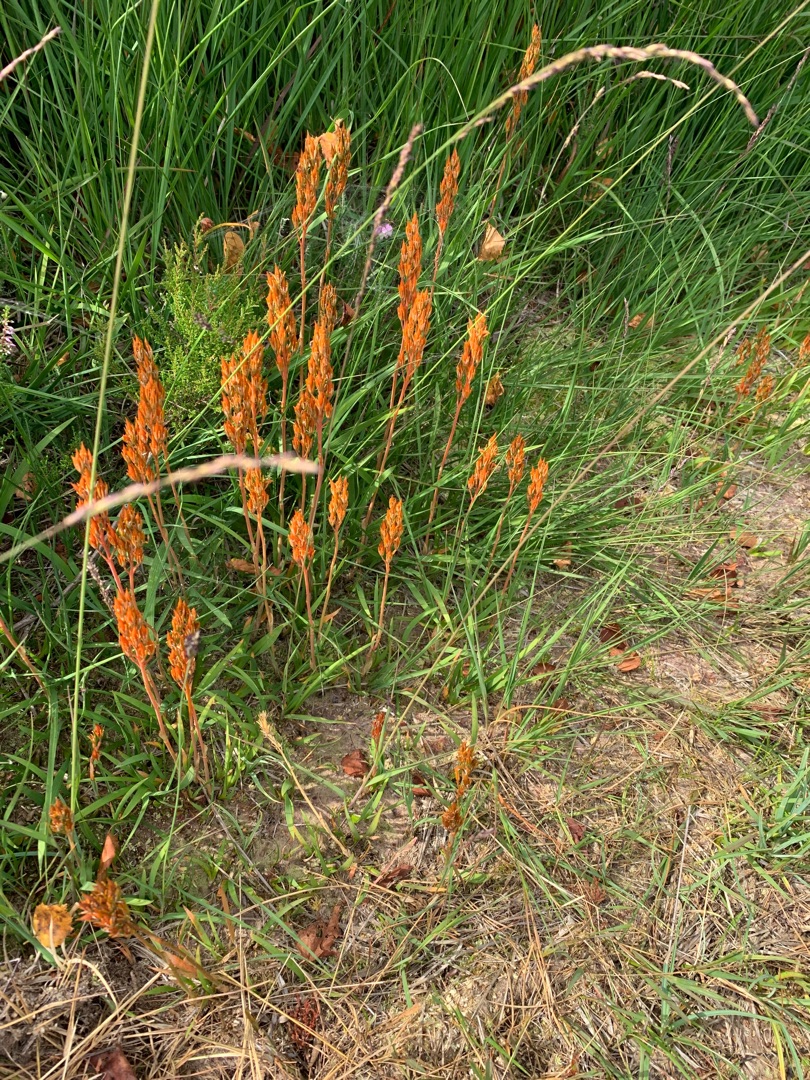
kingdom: Plantae
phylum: Tracheophyta
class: Liliopsida
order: Dioscoreales
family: Nartheciaceae
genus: Narthecium
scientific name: Narthecium ossifragum
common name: Benbræk
